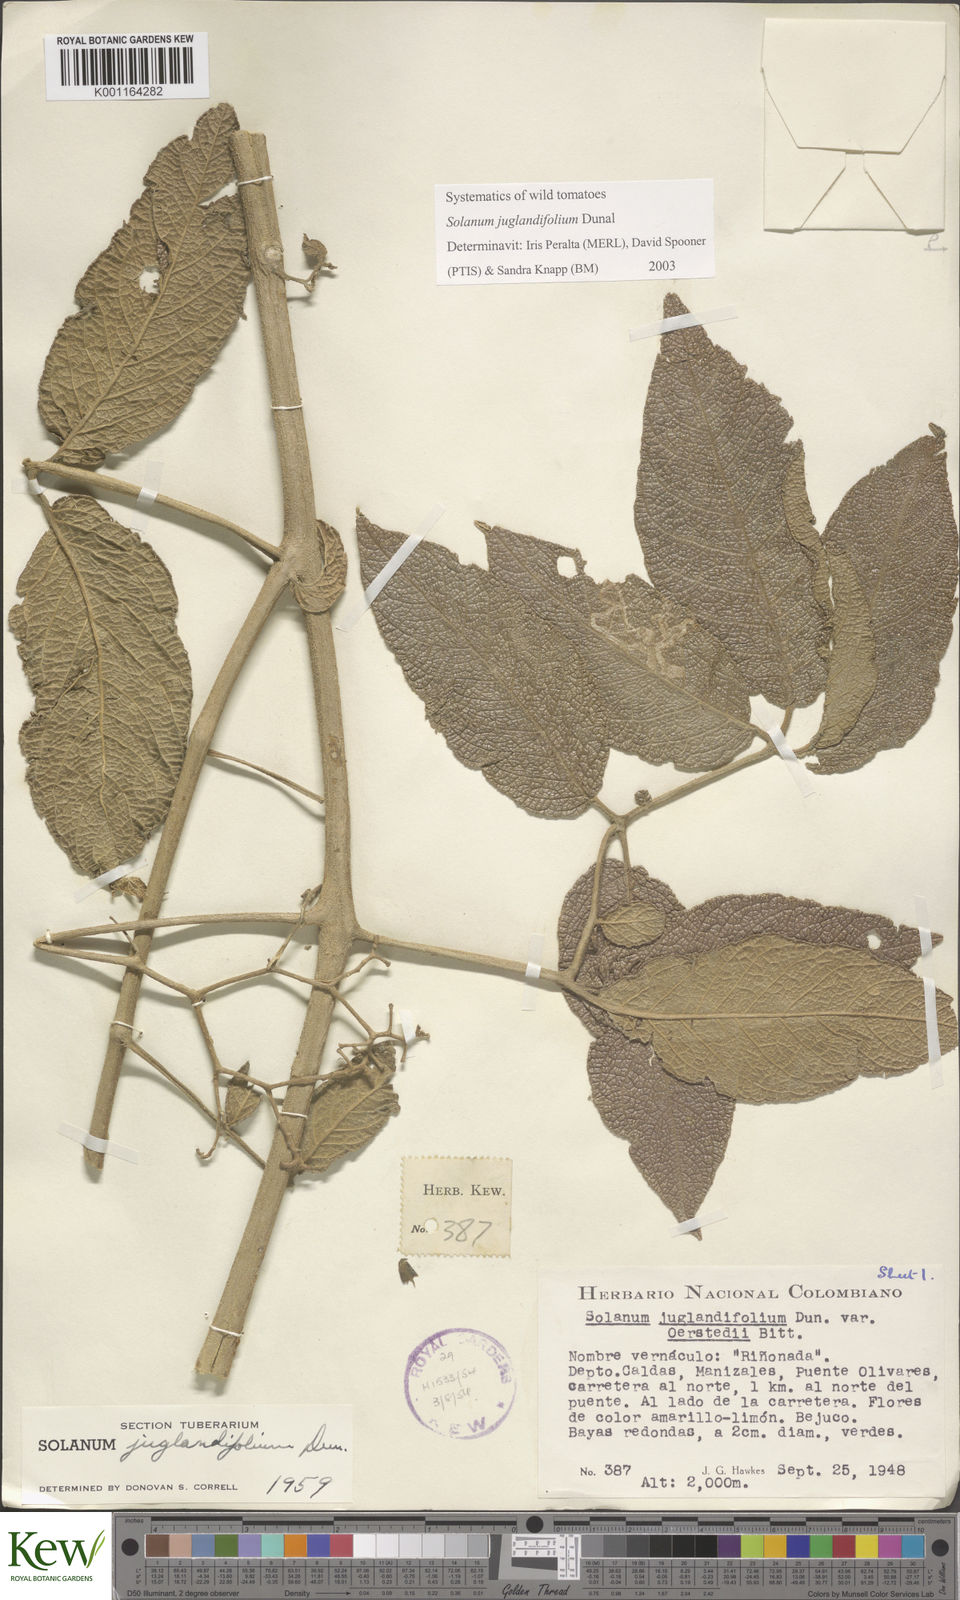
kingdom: Plantae
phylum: Tracheophyta
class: Magnoliopsida
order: Solanales
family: Solanaceae
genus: Solanum
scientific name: Solanum juglandifolium
